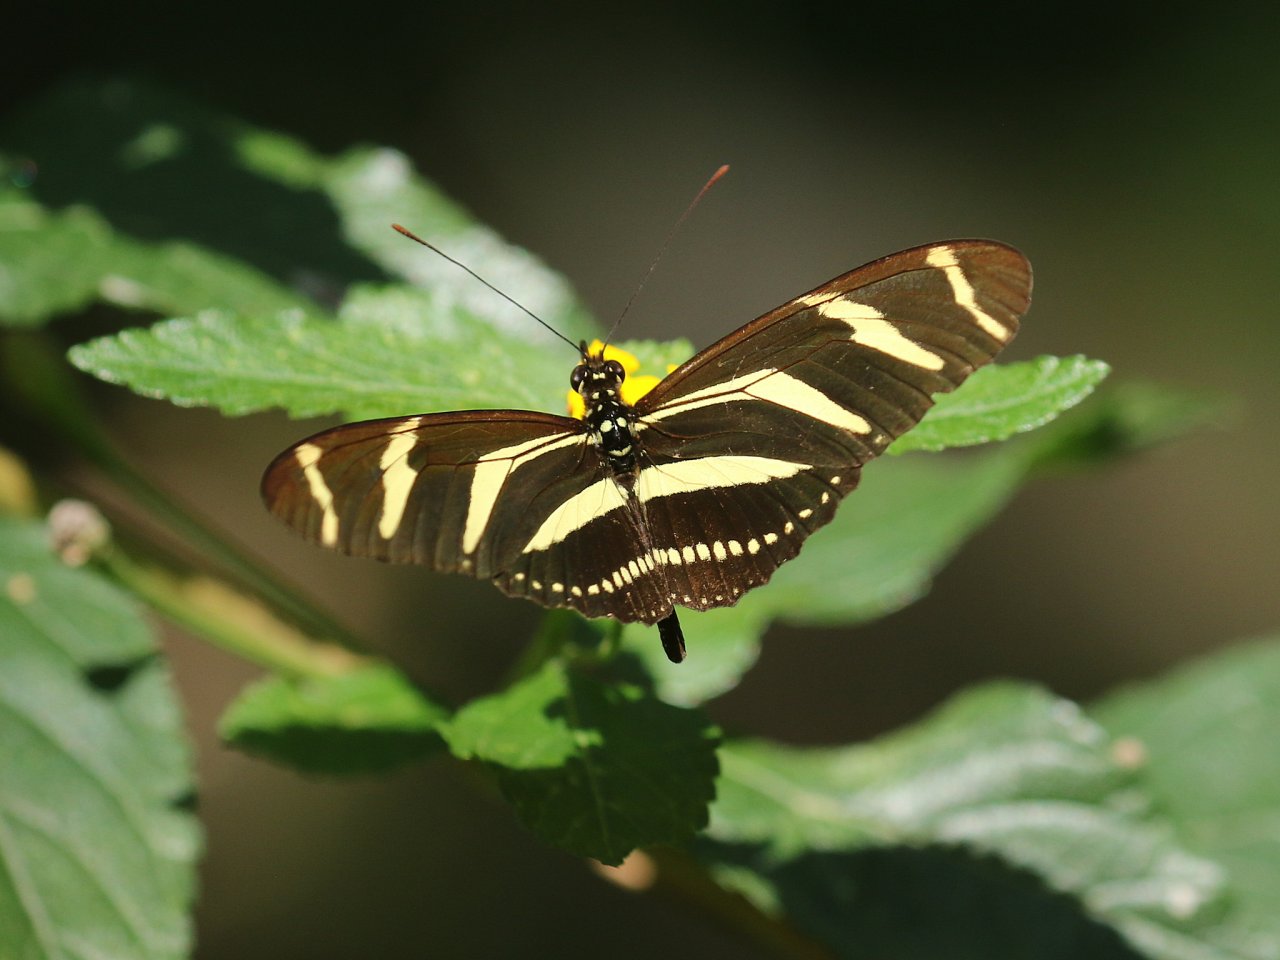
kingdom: Animalia
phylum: Arthropoda
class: Insecta
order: Lepidoptera
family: Nymphalidae
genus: Heliconius
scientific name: Heliconius charithonia
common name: Zebra Longwing
